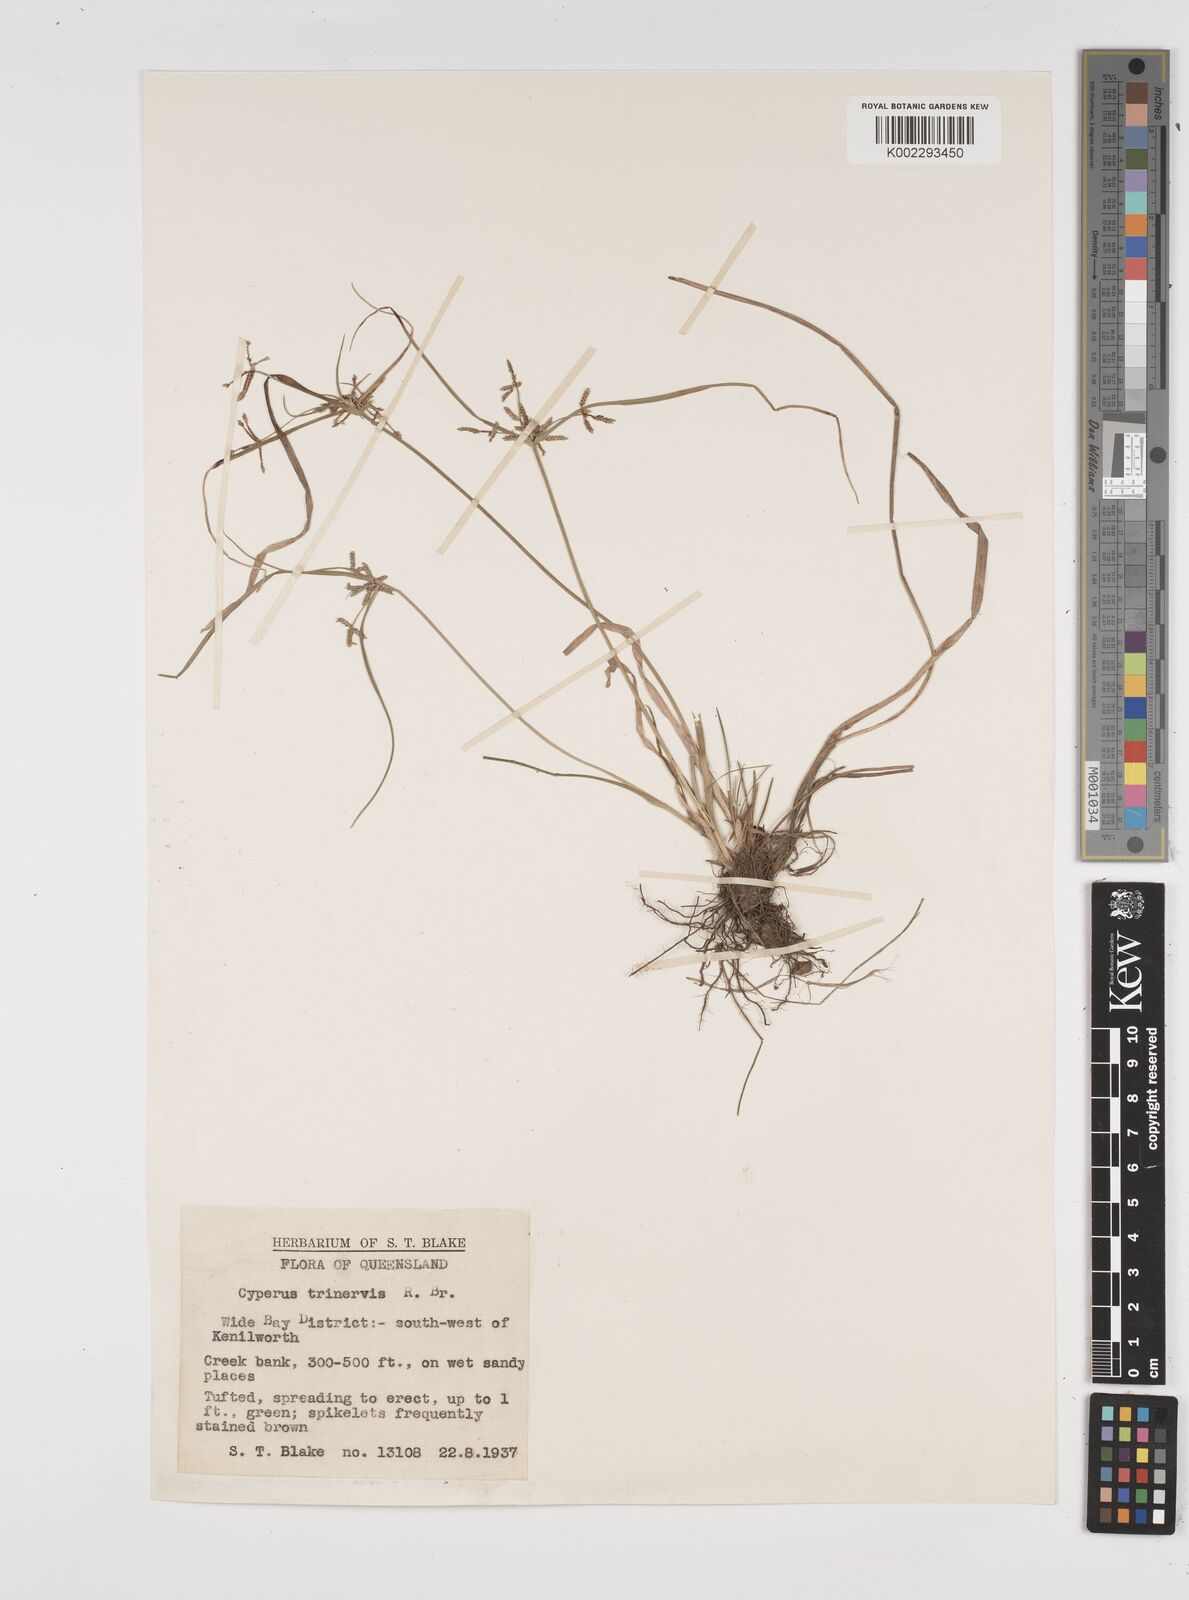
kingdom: Plantae
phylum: Tracheophyta
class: Liliopsida
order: Poales
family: Cyperaceae
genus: Cyperus
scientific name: Cyperus trinervis
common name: Australian flatsedge
